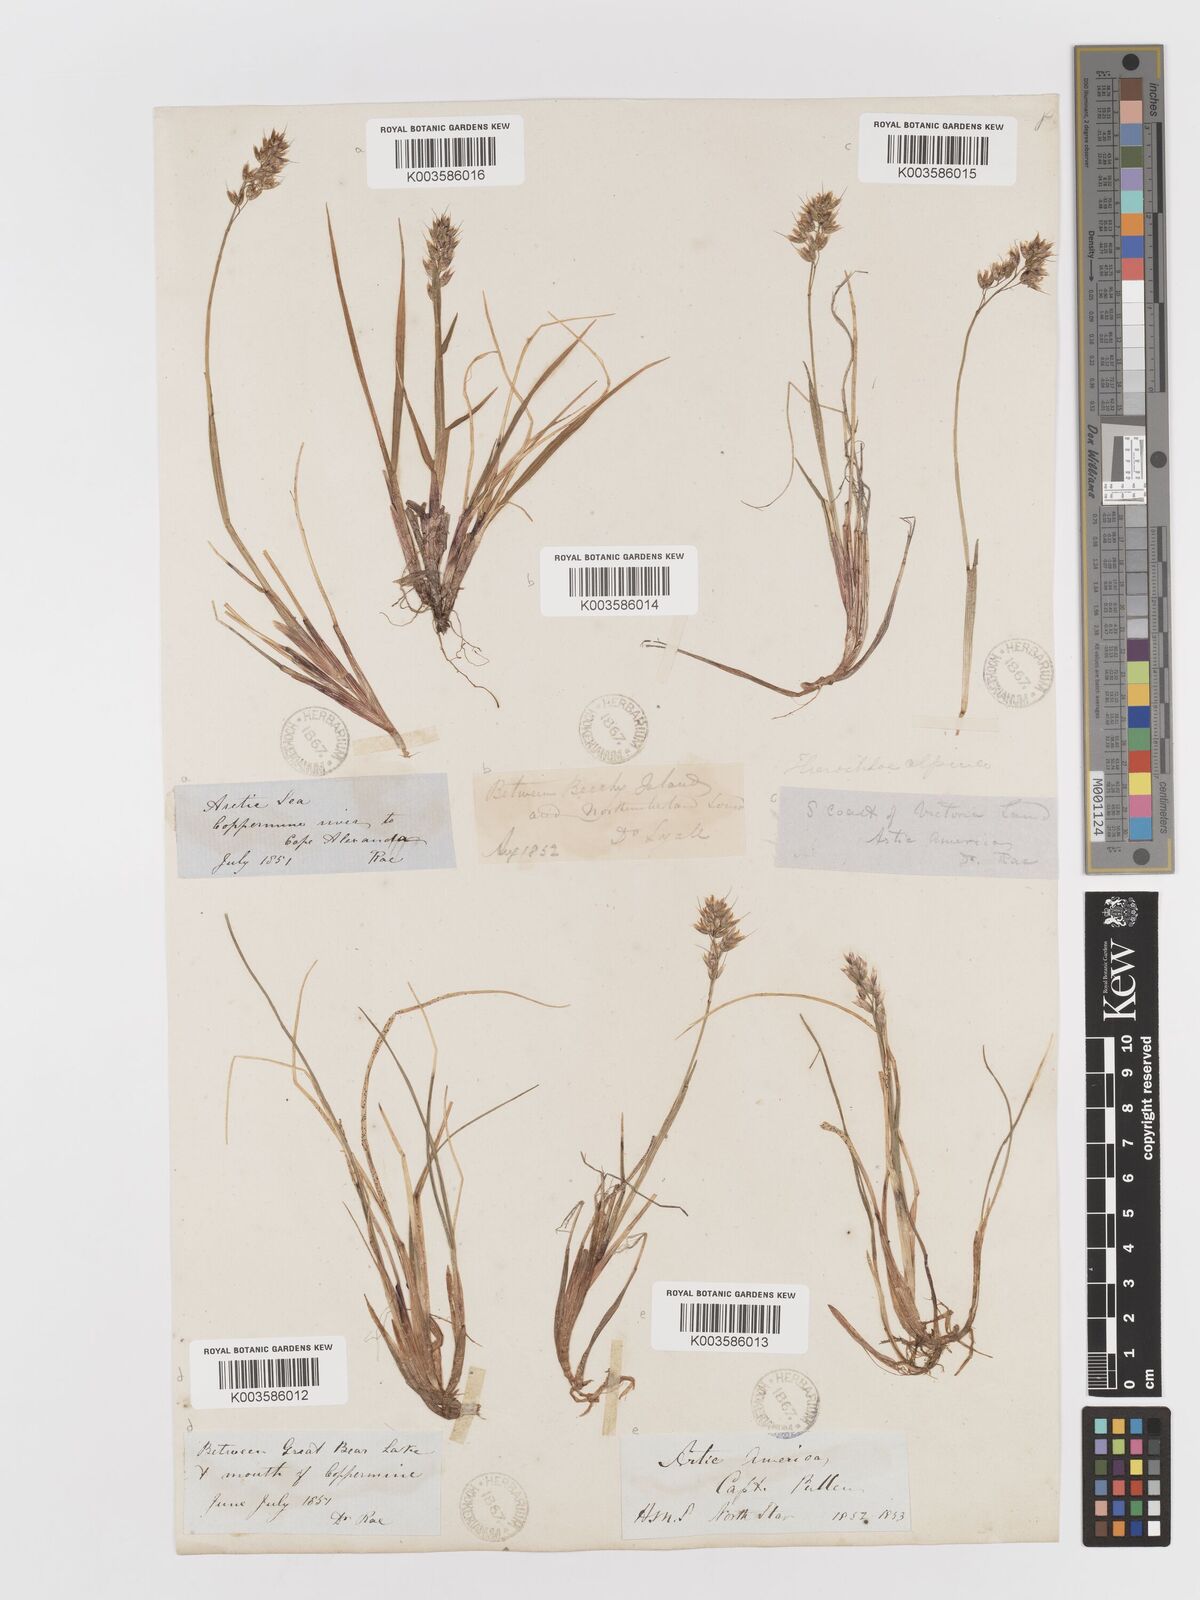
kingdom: Plantae
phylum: Tracheophyta
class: Liliopsida
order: Poales
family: Poaceae
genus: Anthoxanthum
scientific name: Anthoxanthum monticola
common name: Alpine sweetgrass
